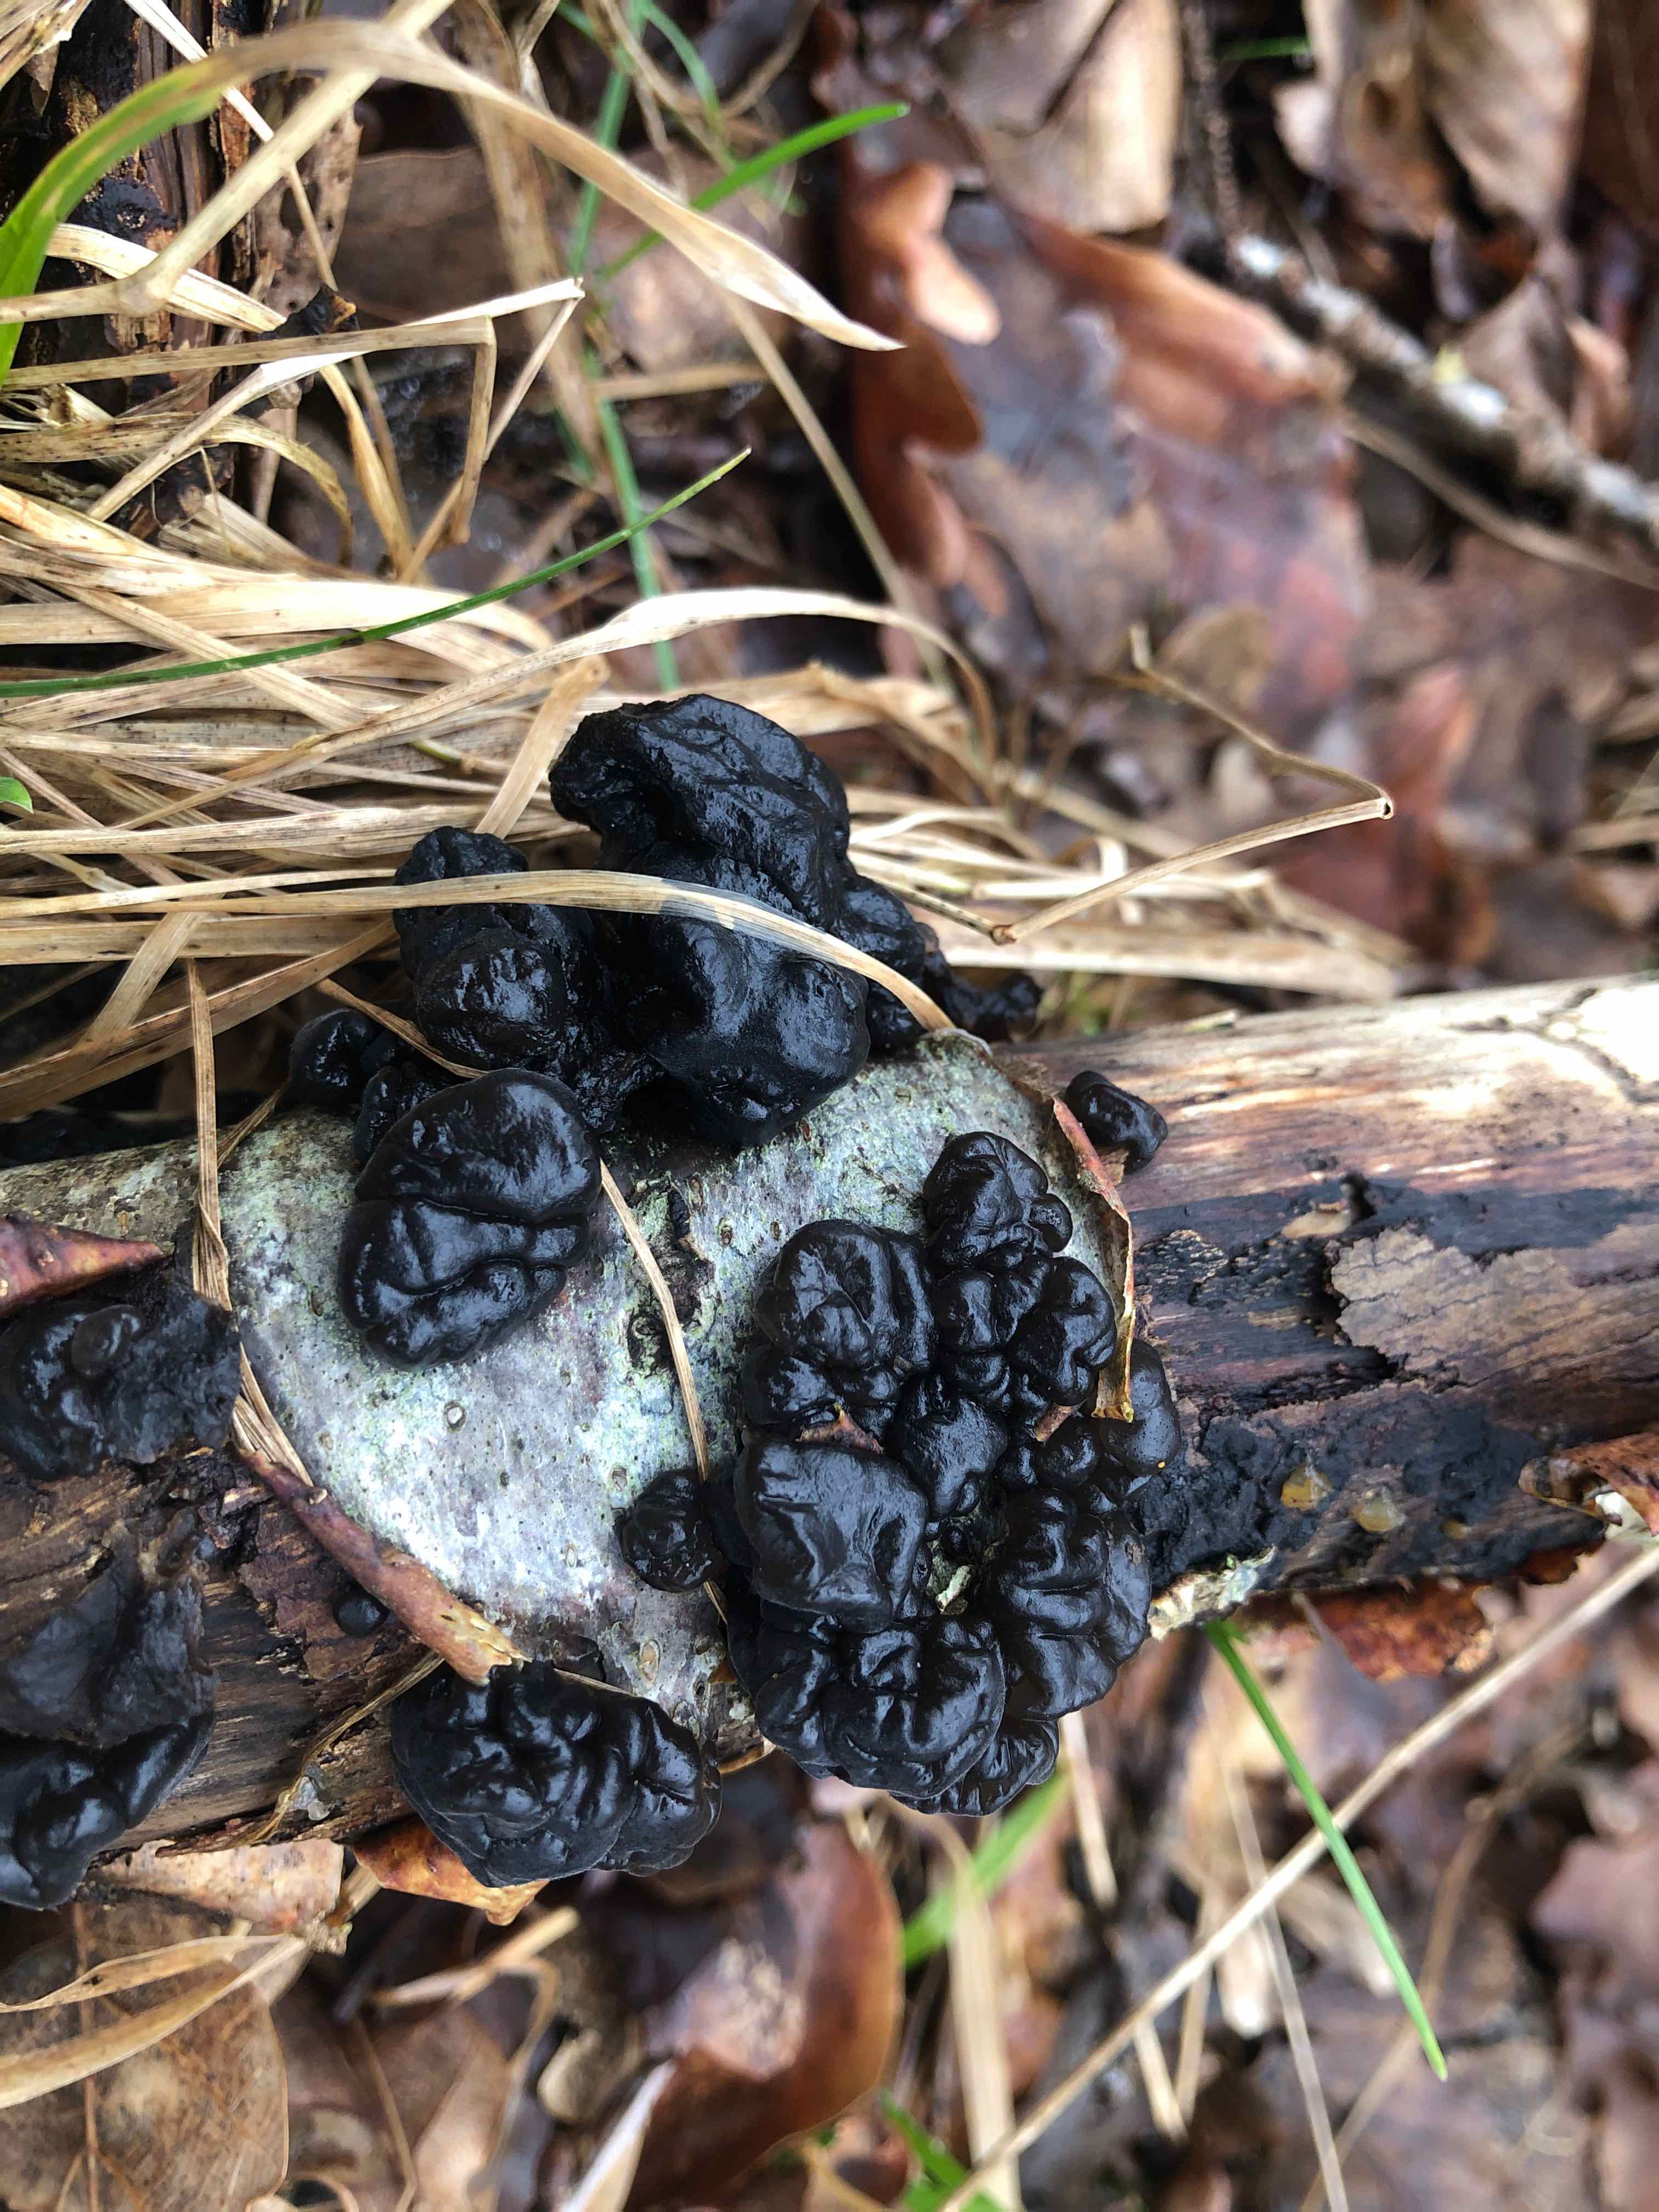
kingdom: Fungi
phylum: Basidiomycota
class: Agaricomycetes
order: Auriculariales
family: Auriculariaceae
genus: Exidia
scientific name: Exidia nigricans
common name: almindelig bævretop
